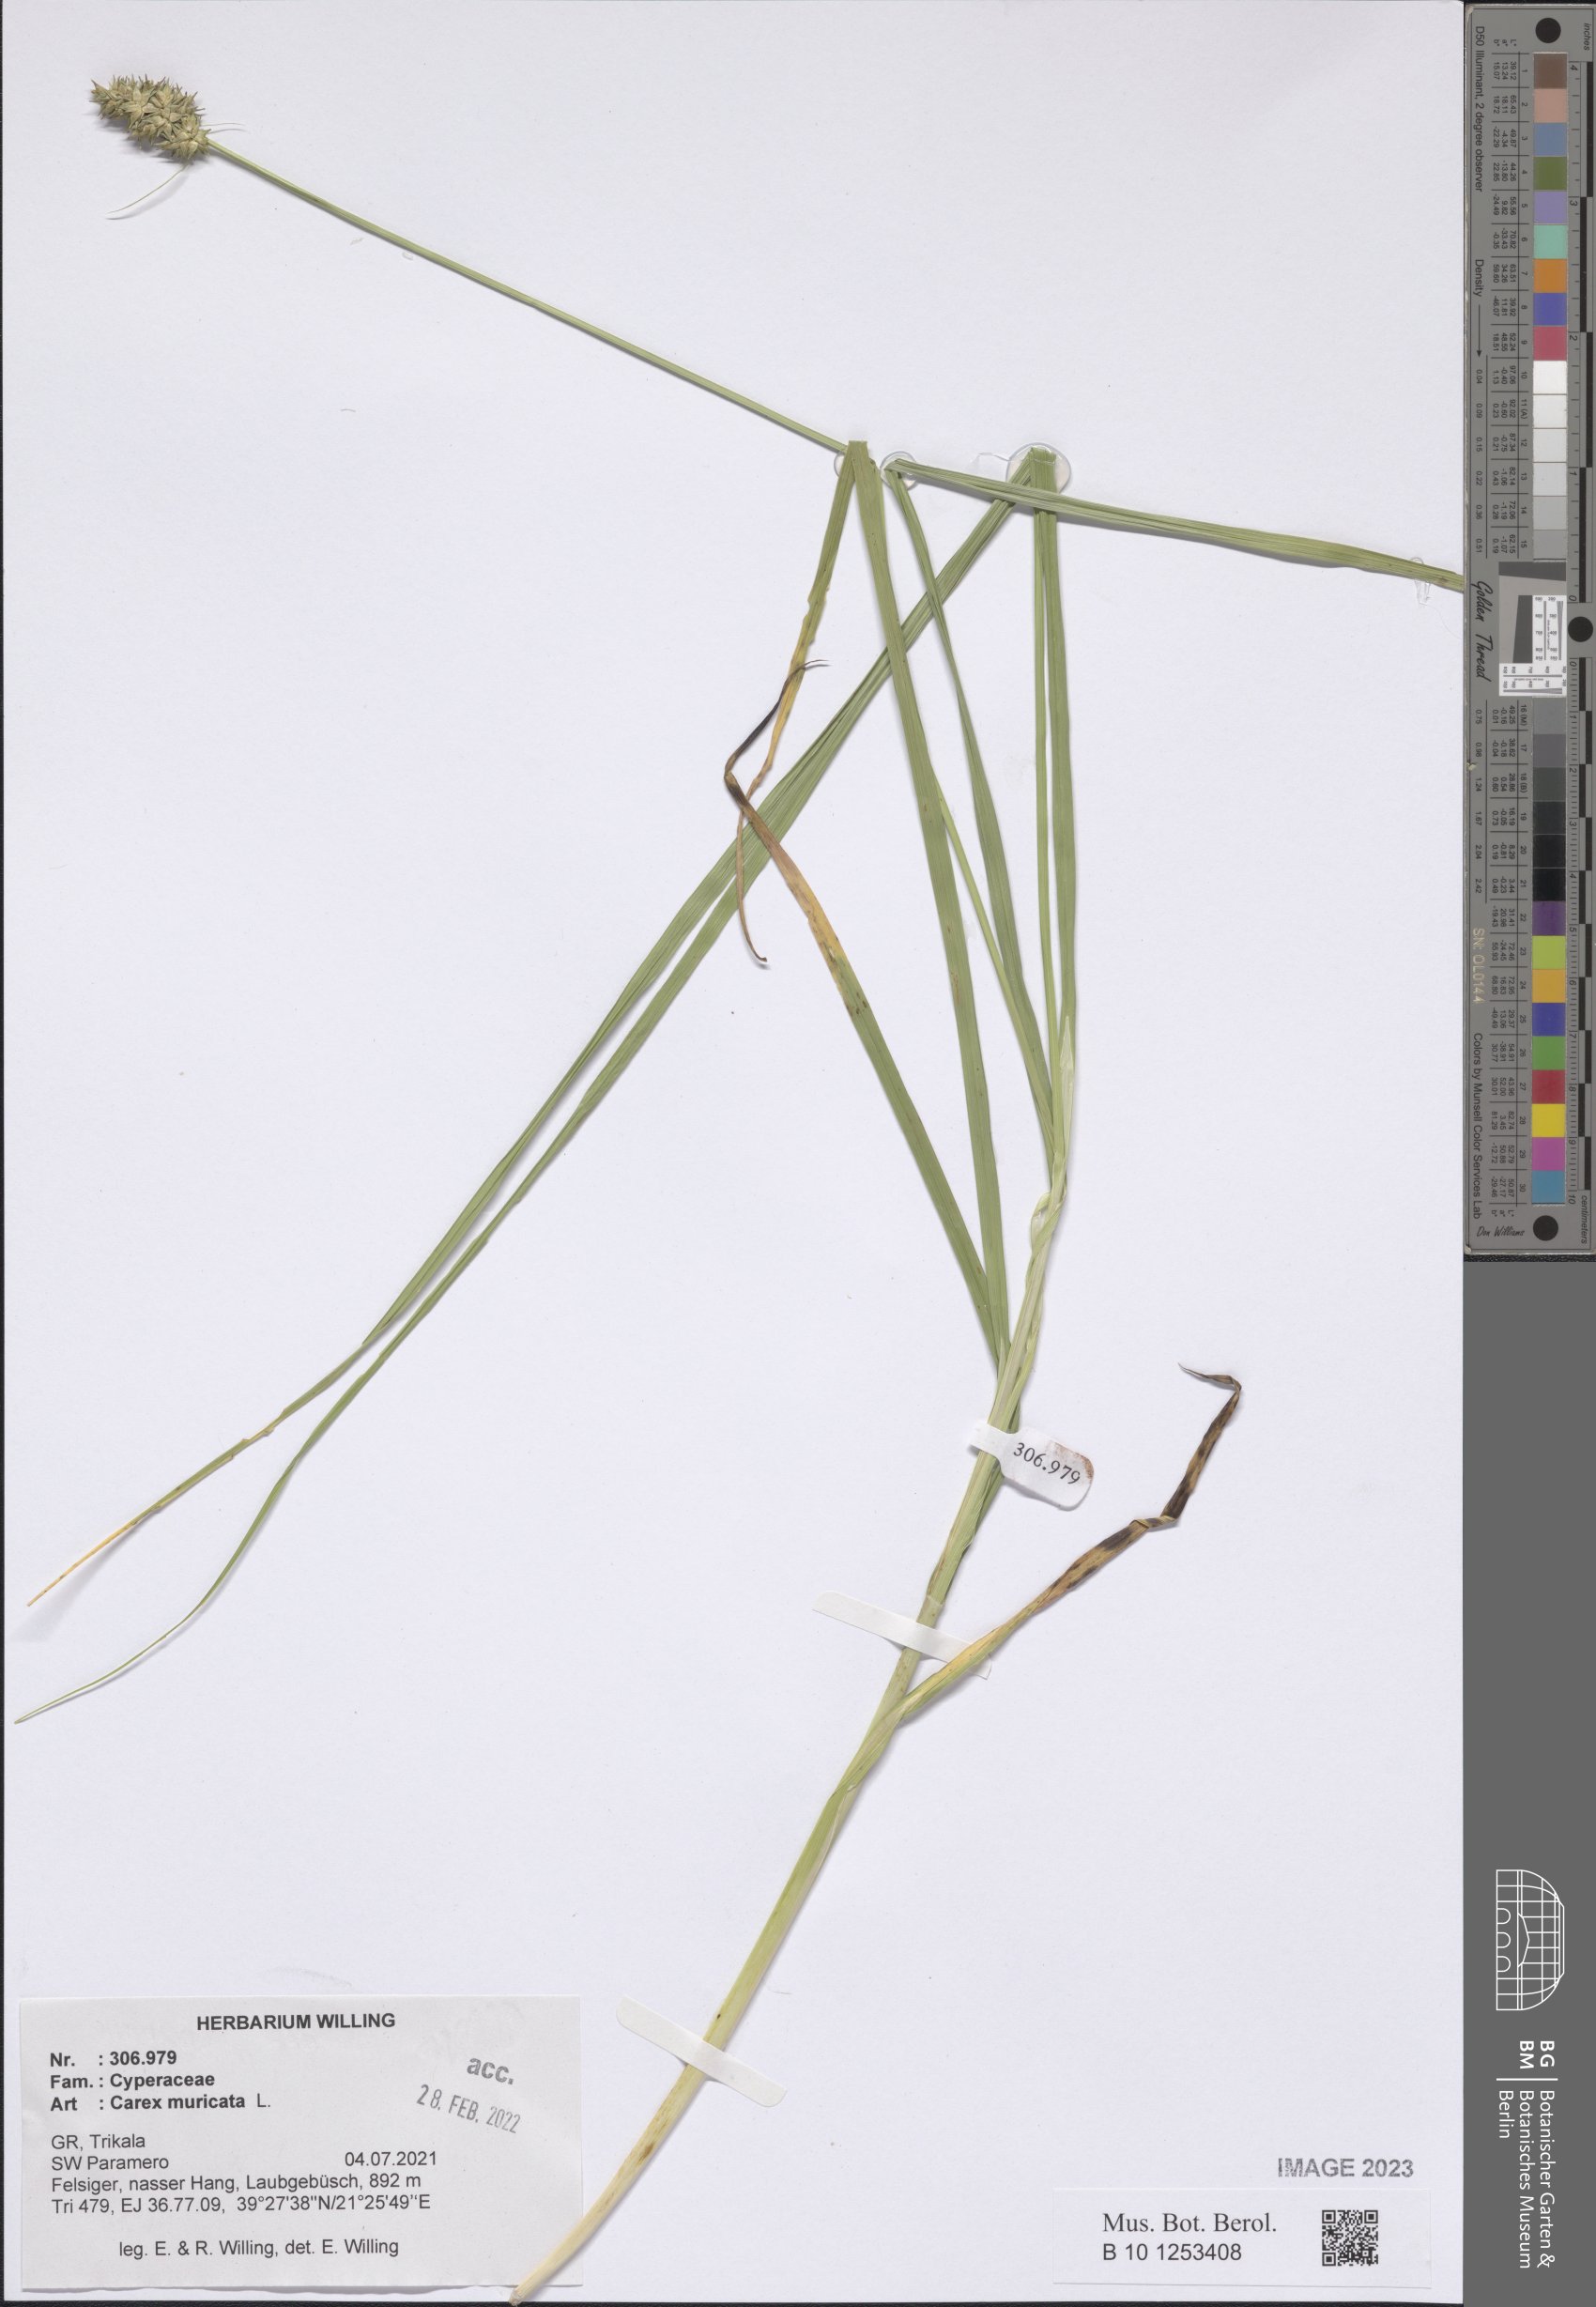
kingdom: Plantae
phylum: Tracheophyta
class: Liliopsida
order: Poales
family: Cyperaceae
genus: Carex
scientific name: Carex muricata
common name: Rough sedge
